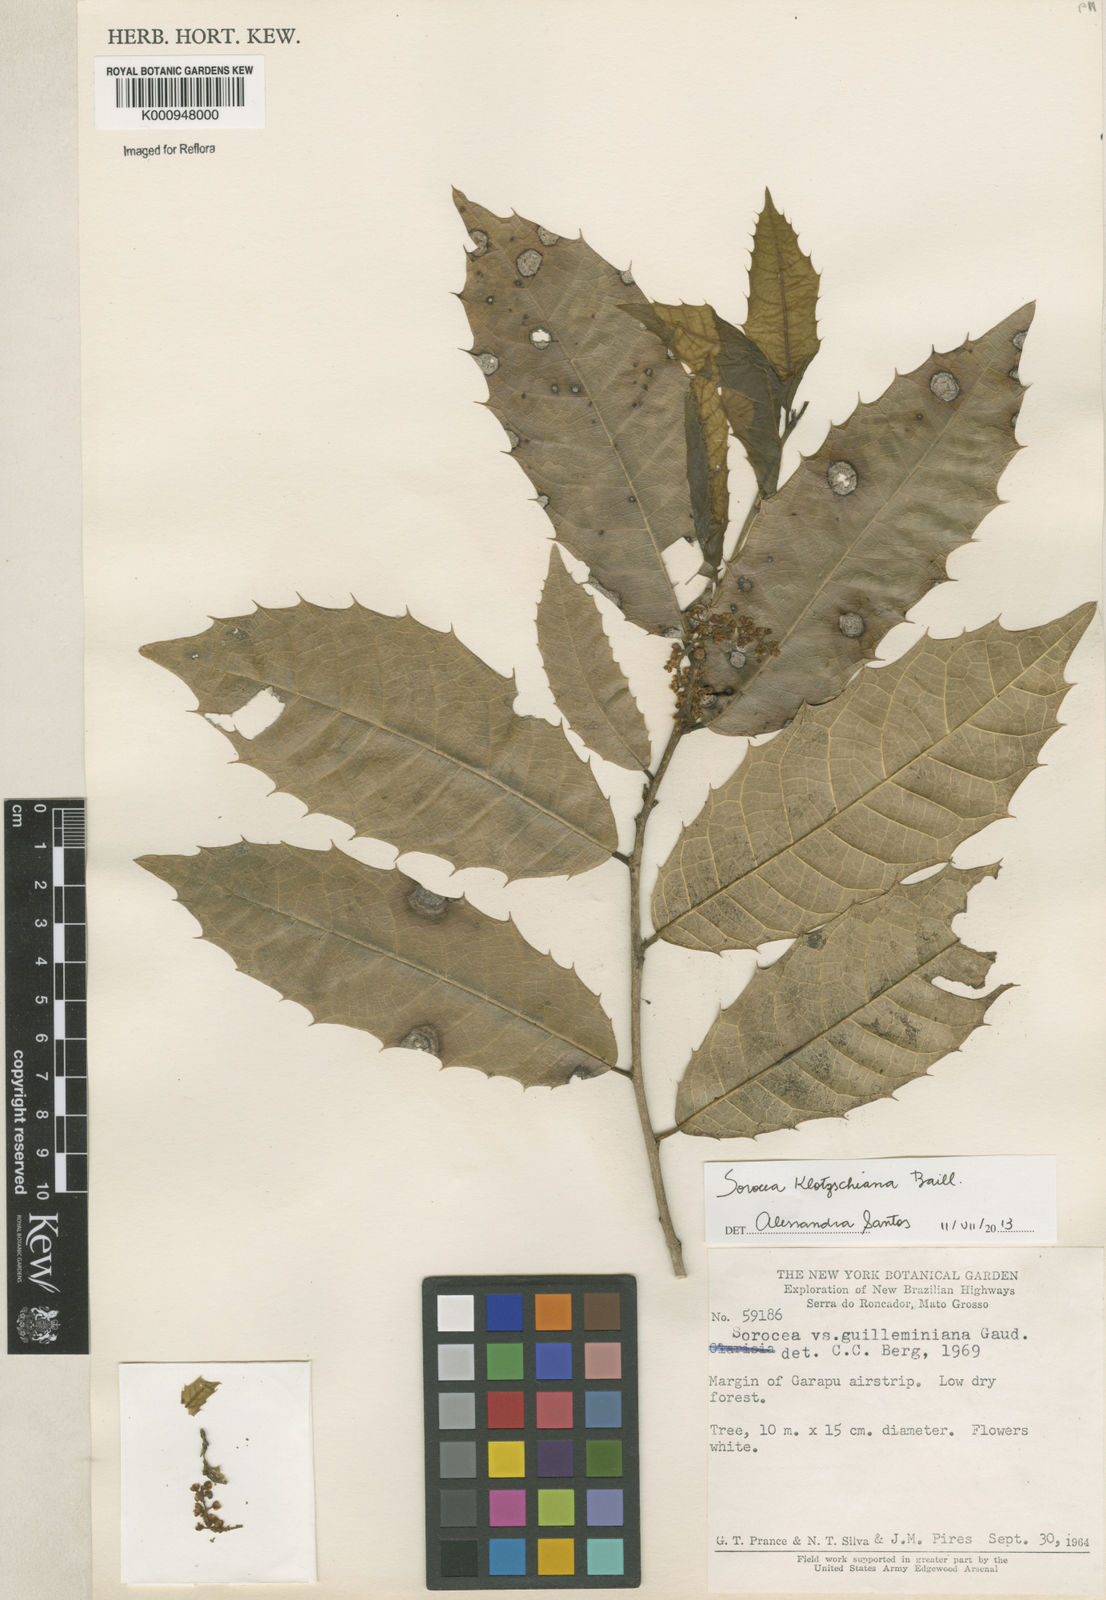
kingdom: Plantae
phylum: Tracheophyta
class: Magnoliopsida
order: Rosales
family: Moraceae
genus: Sorocea
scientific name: Sorocea guilleminiana
